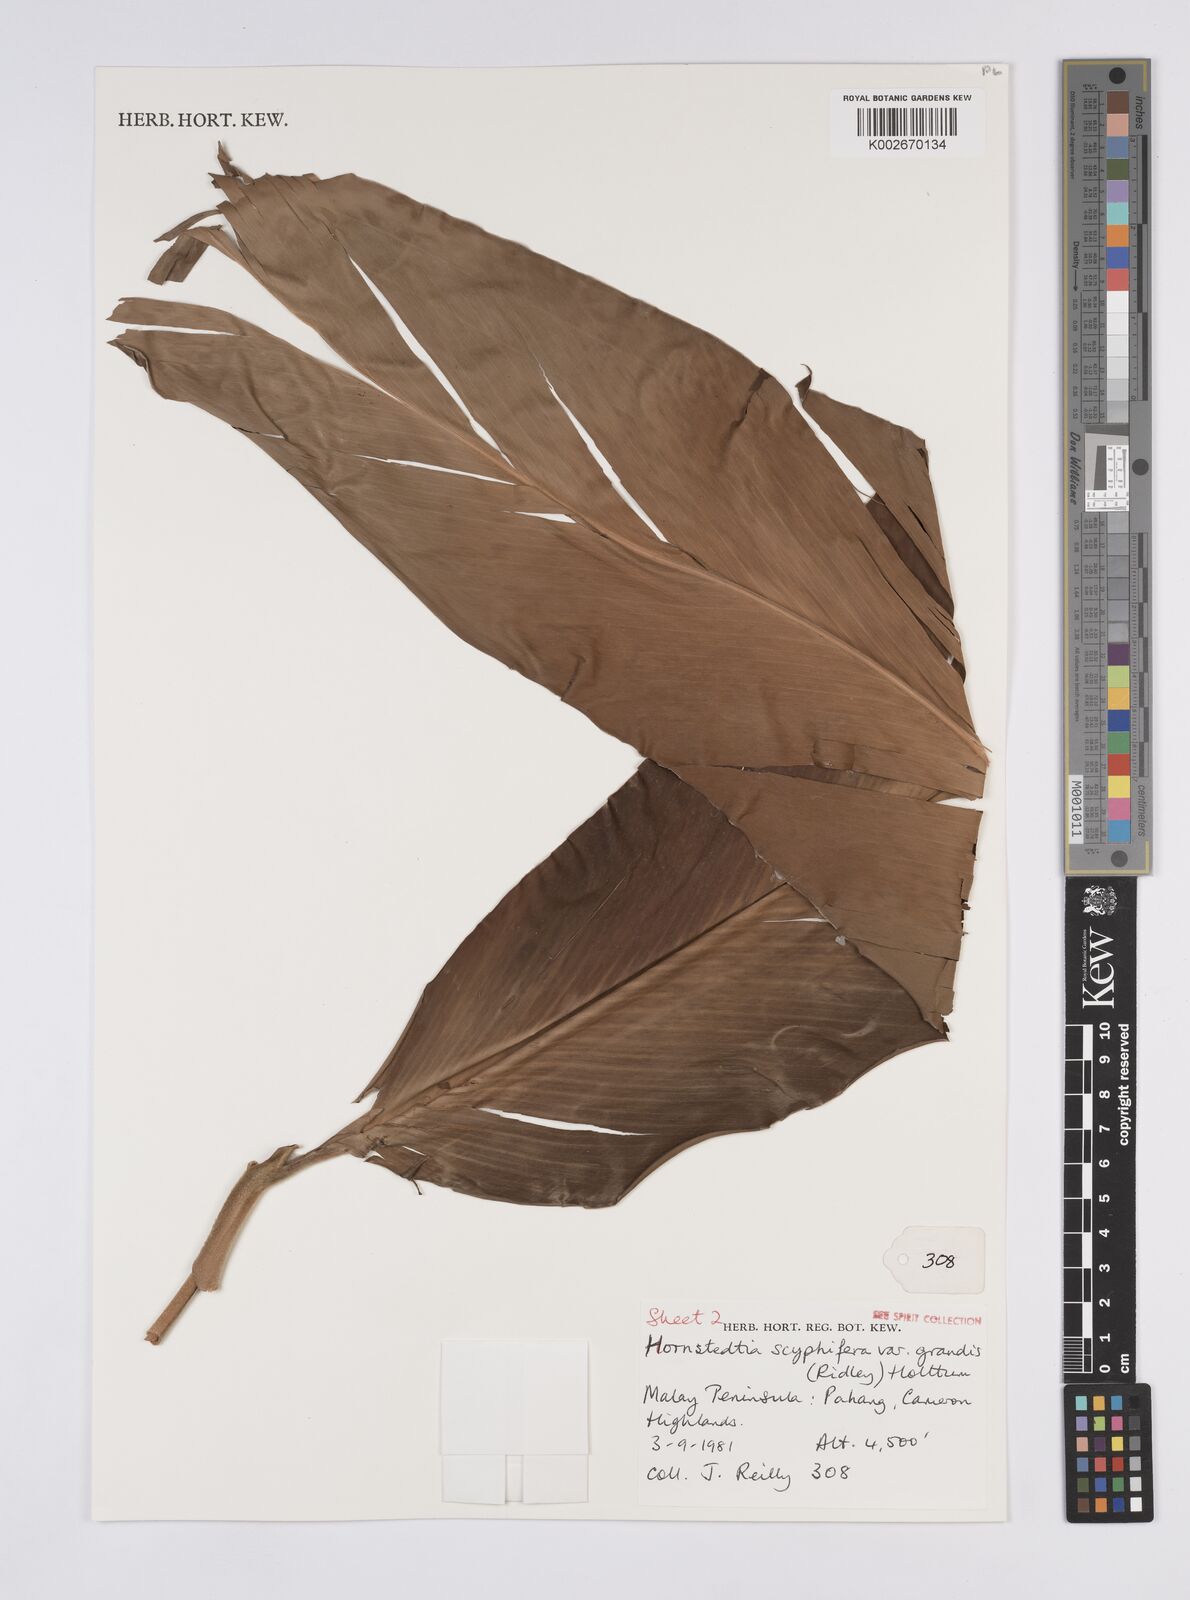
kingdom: Plantae
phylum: Tracheophyta
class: Liliopsida
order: Zingiberales
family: Zingiberaceae
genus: Hornstedtia
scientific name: Hornstedtia scyphifera
